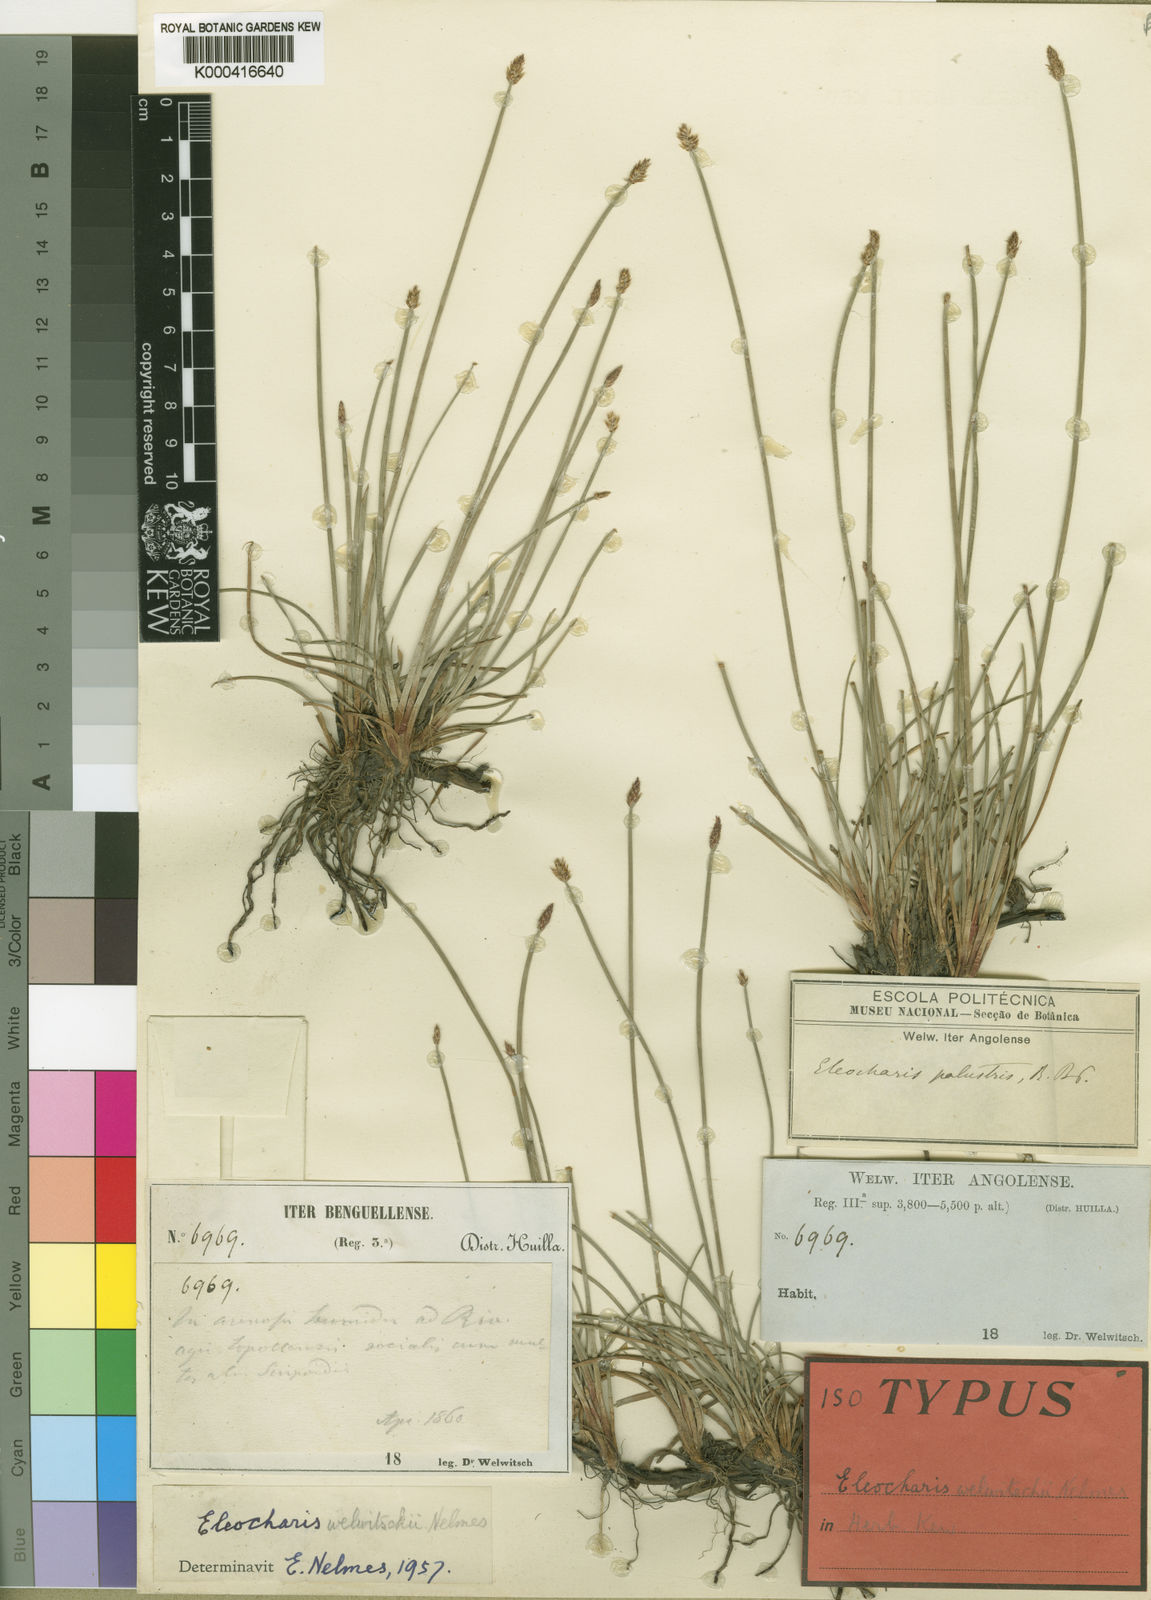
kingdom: Plantae
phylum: Tracheophyta
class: Liliopsida
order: Poales
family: Cyperaceae
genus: Eleocharis
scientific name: Eleocharis welwitschii
